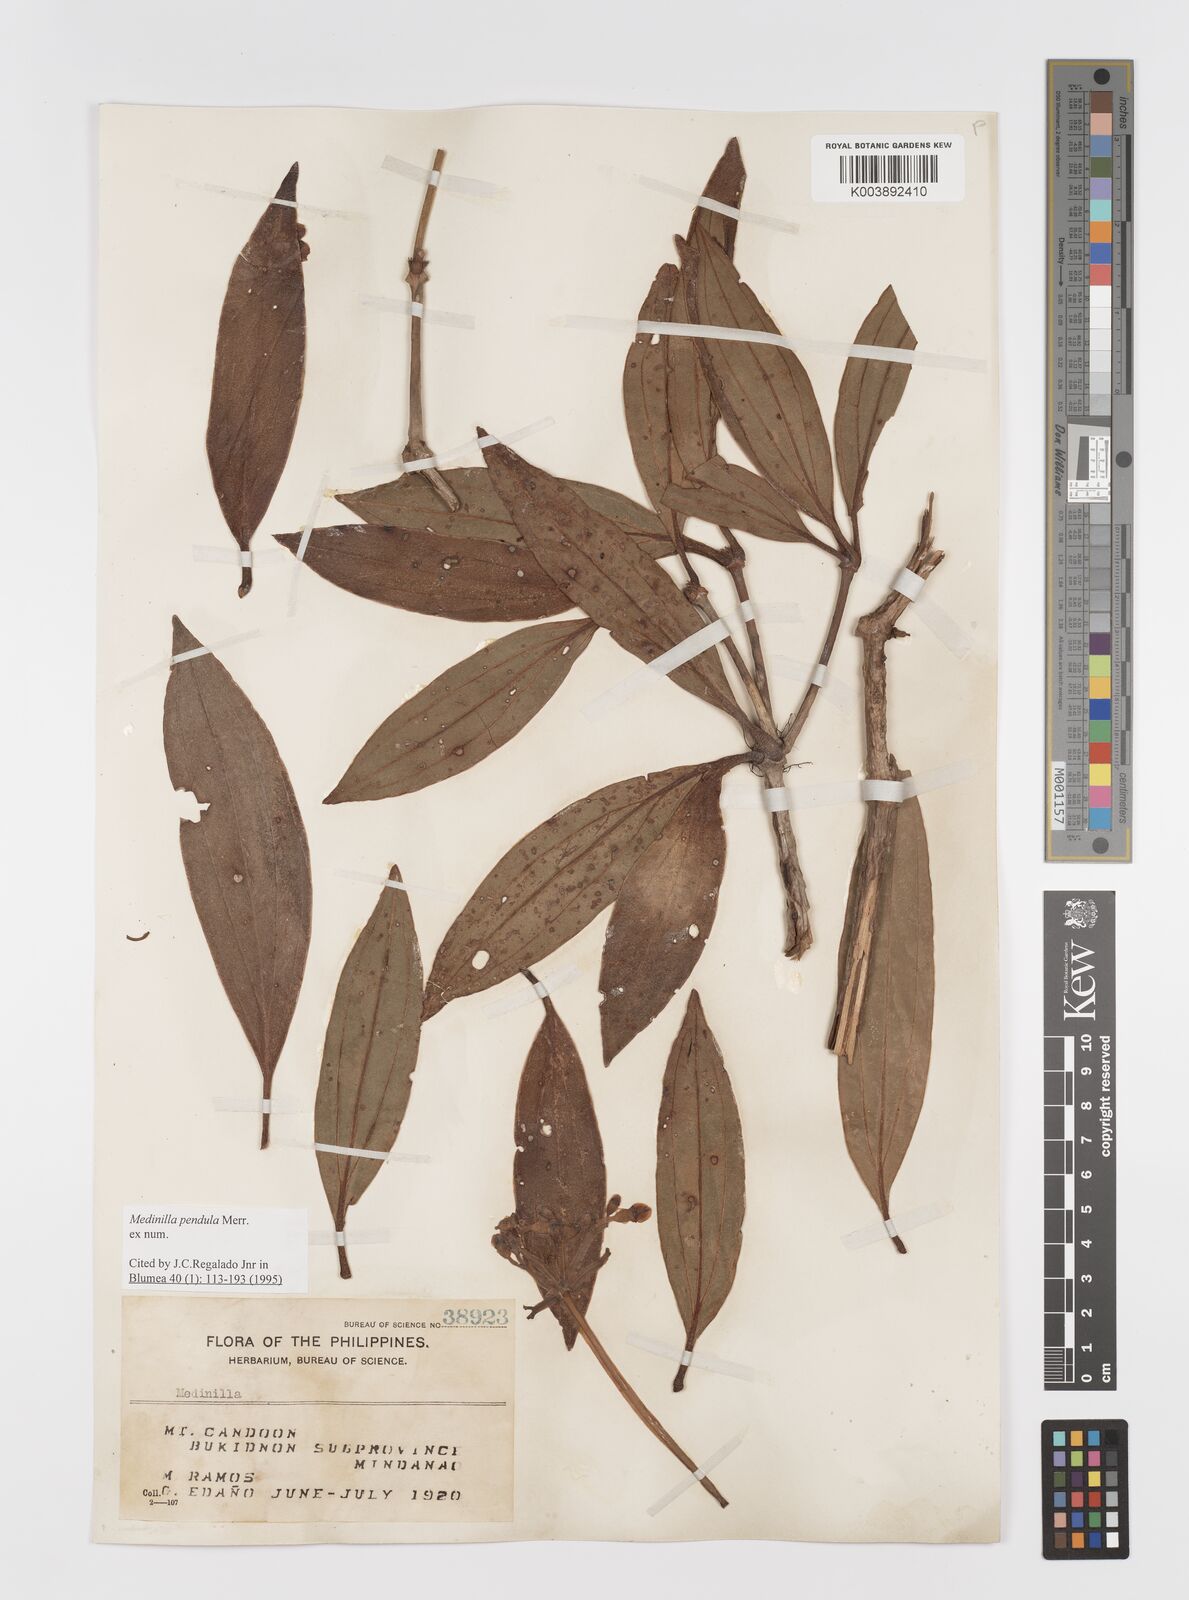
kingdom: Plantae
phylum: Tracheophyta
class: Magnoliopsida
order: Myrtales
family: Melastomataceae
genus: Medinilla
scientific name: Medinilla pendula
